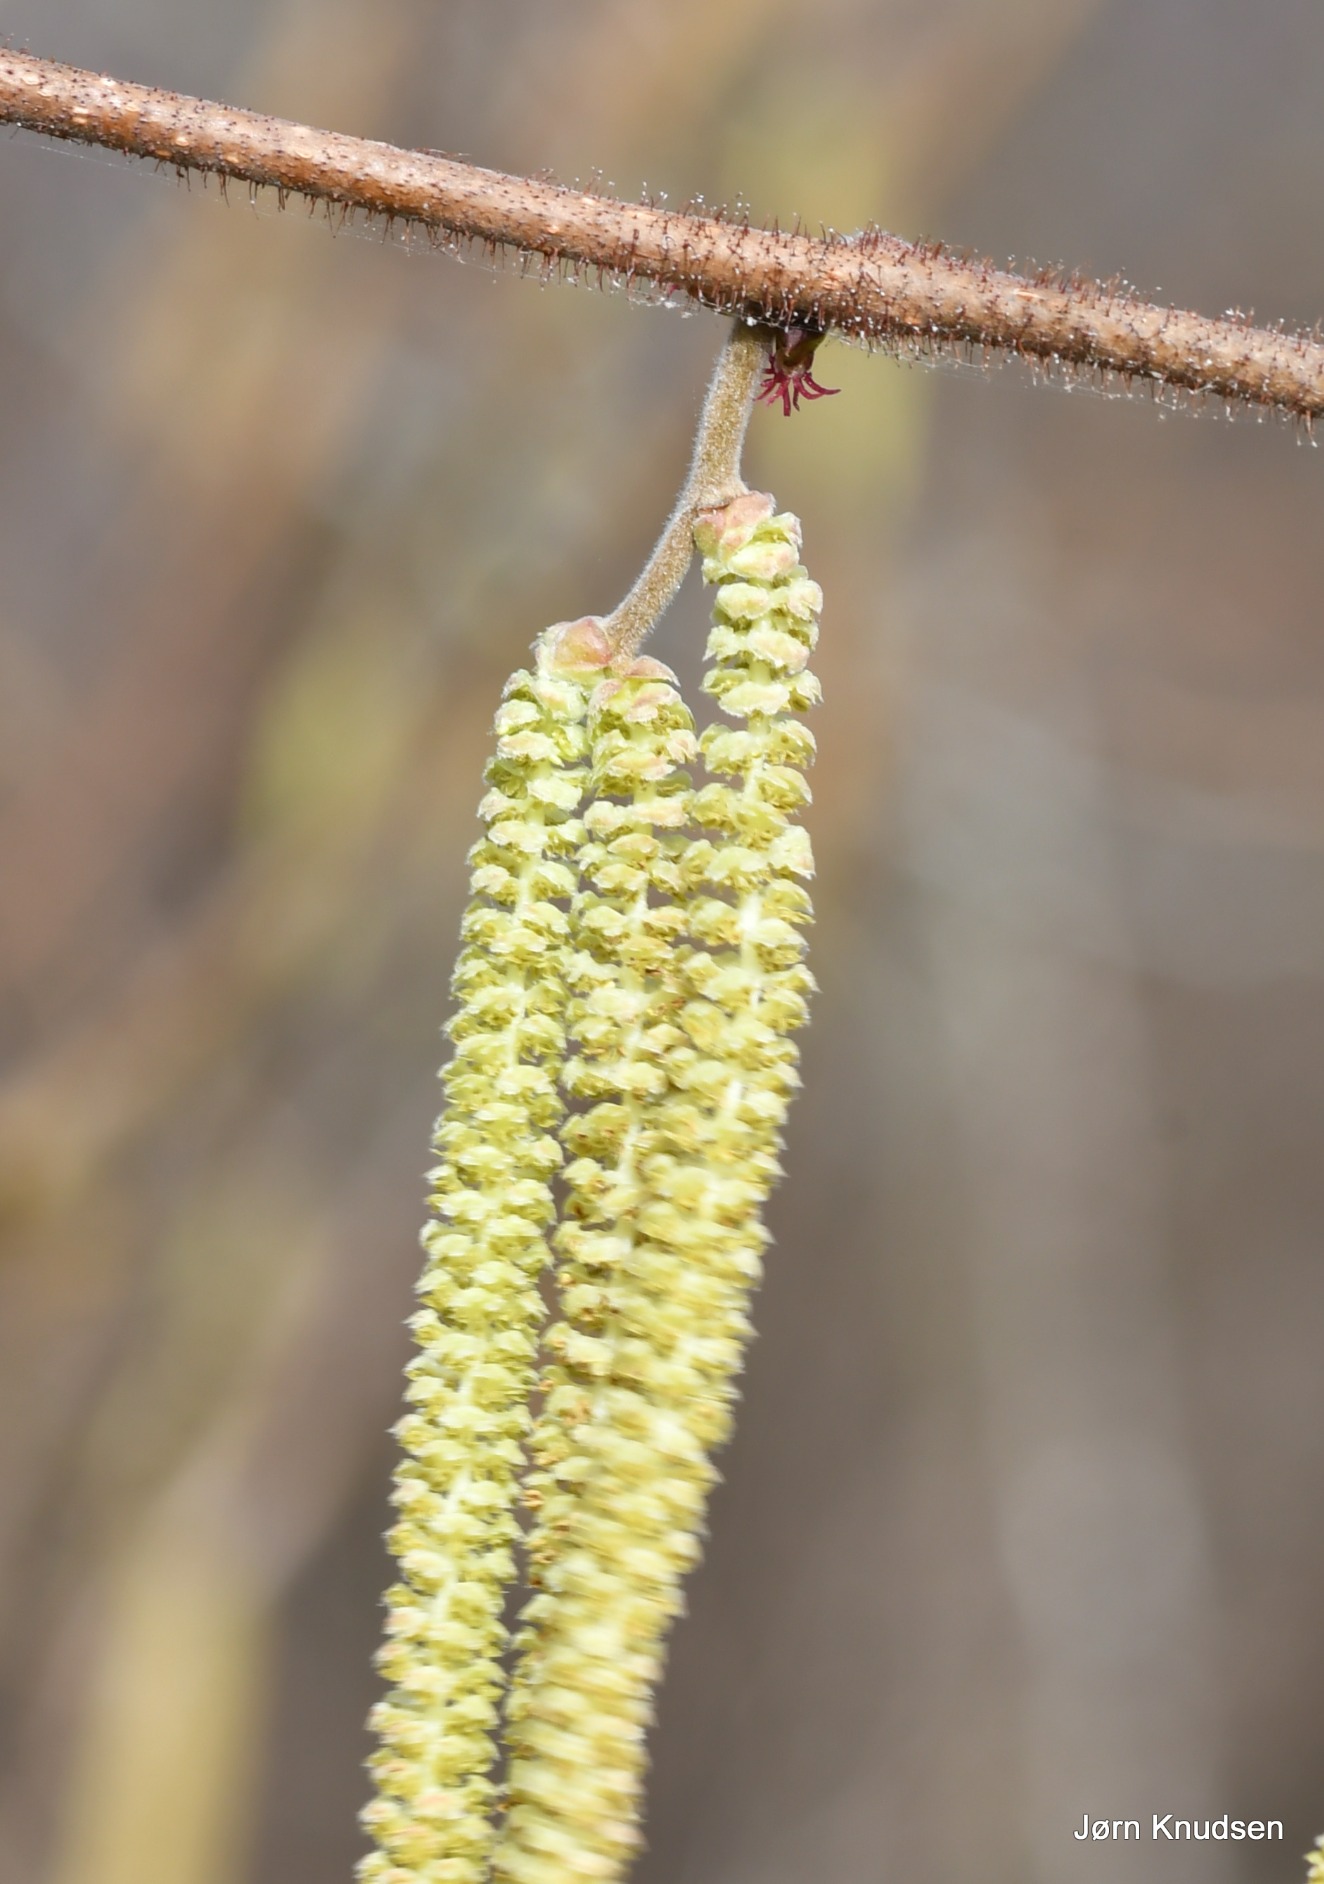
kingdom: Plantae
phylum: Tracheophyta
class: Magnoliopsida
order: Fagales
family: Betulaceae
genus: Corylus
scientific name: Corylus avellana
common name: Hassel
